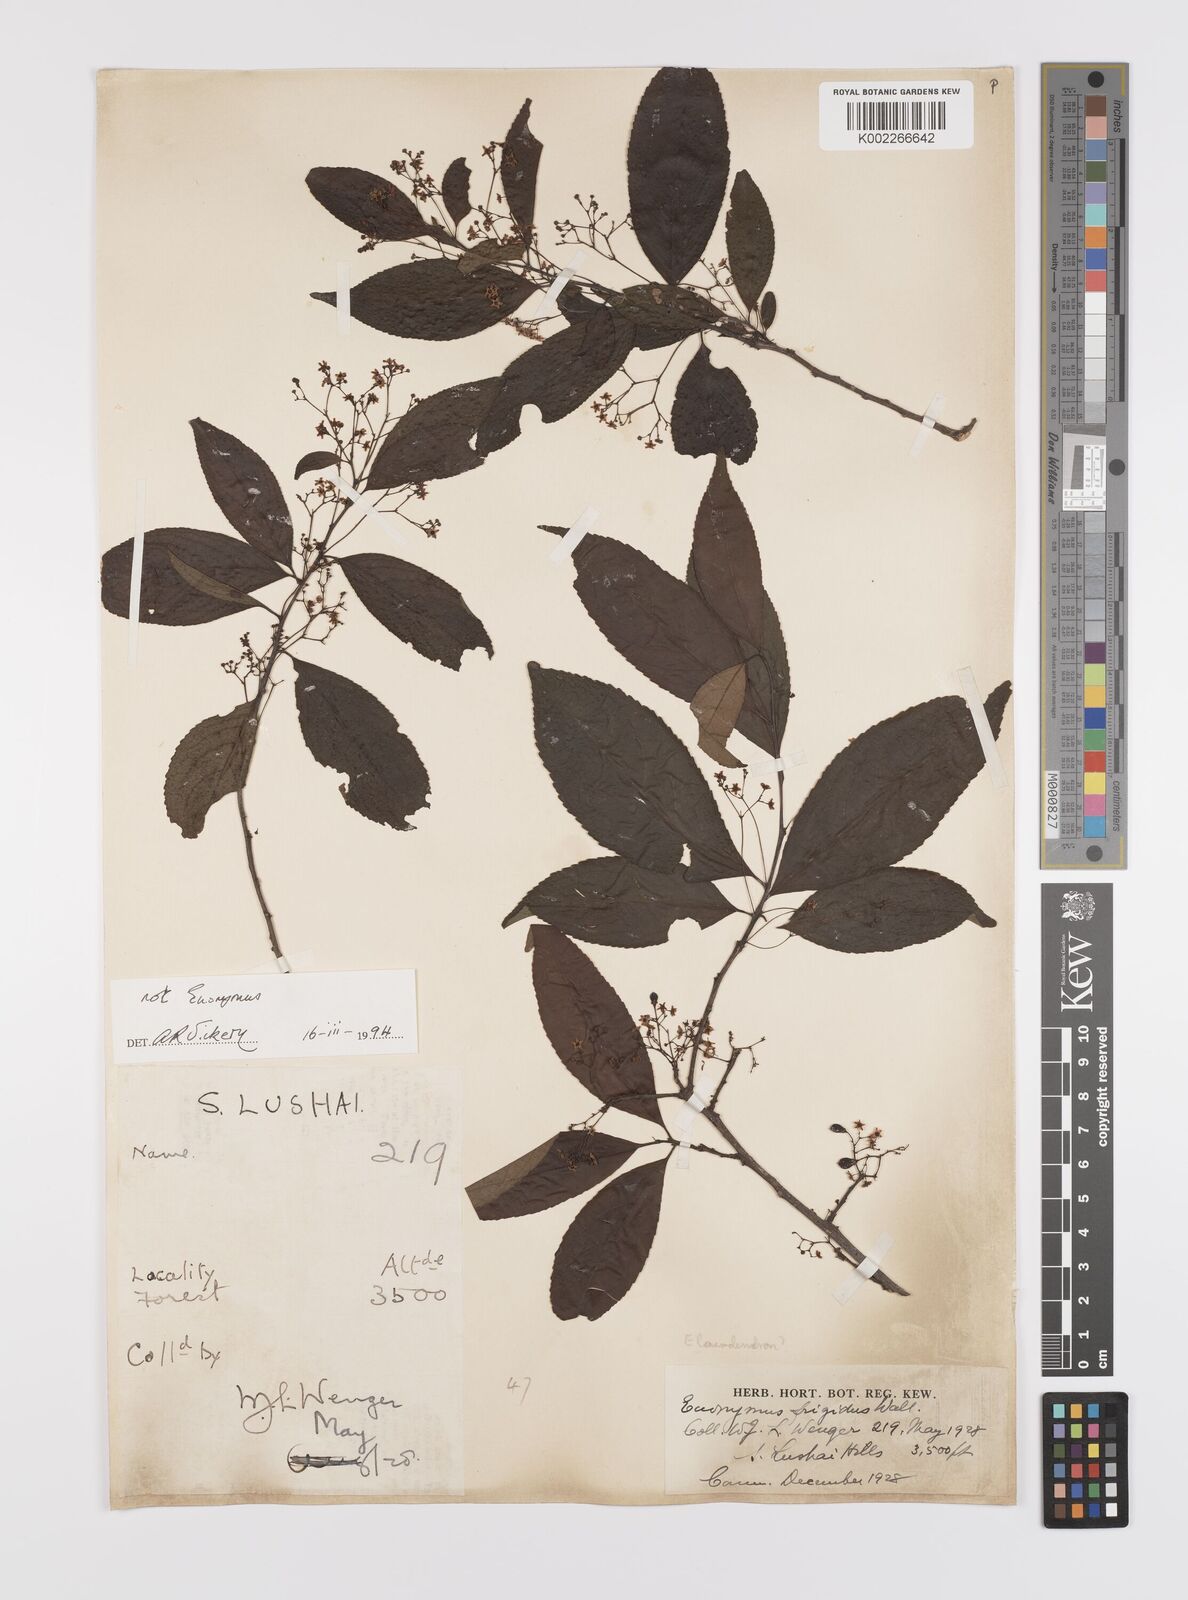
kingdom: Plantae
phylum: Tracheophyta
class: Magnoliopsida
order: Celastrales
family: Celastraceae
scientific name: Celastraceae
